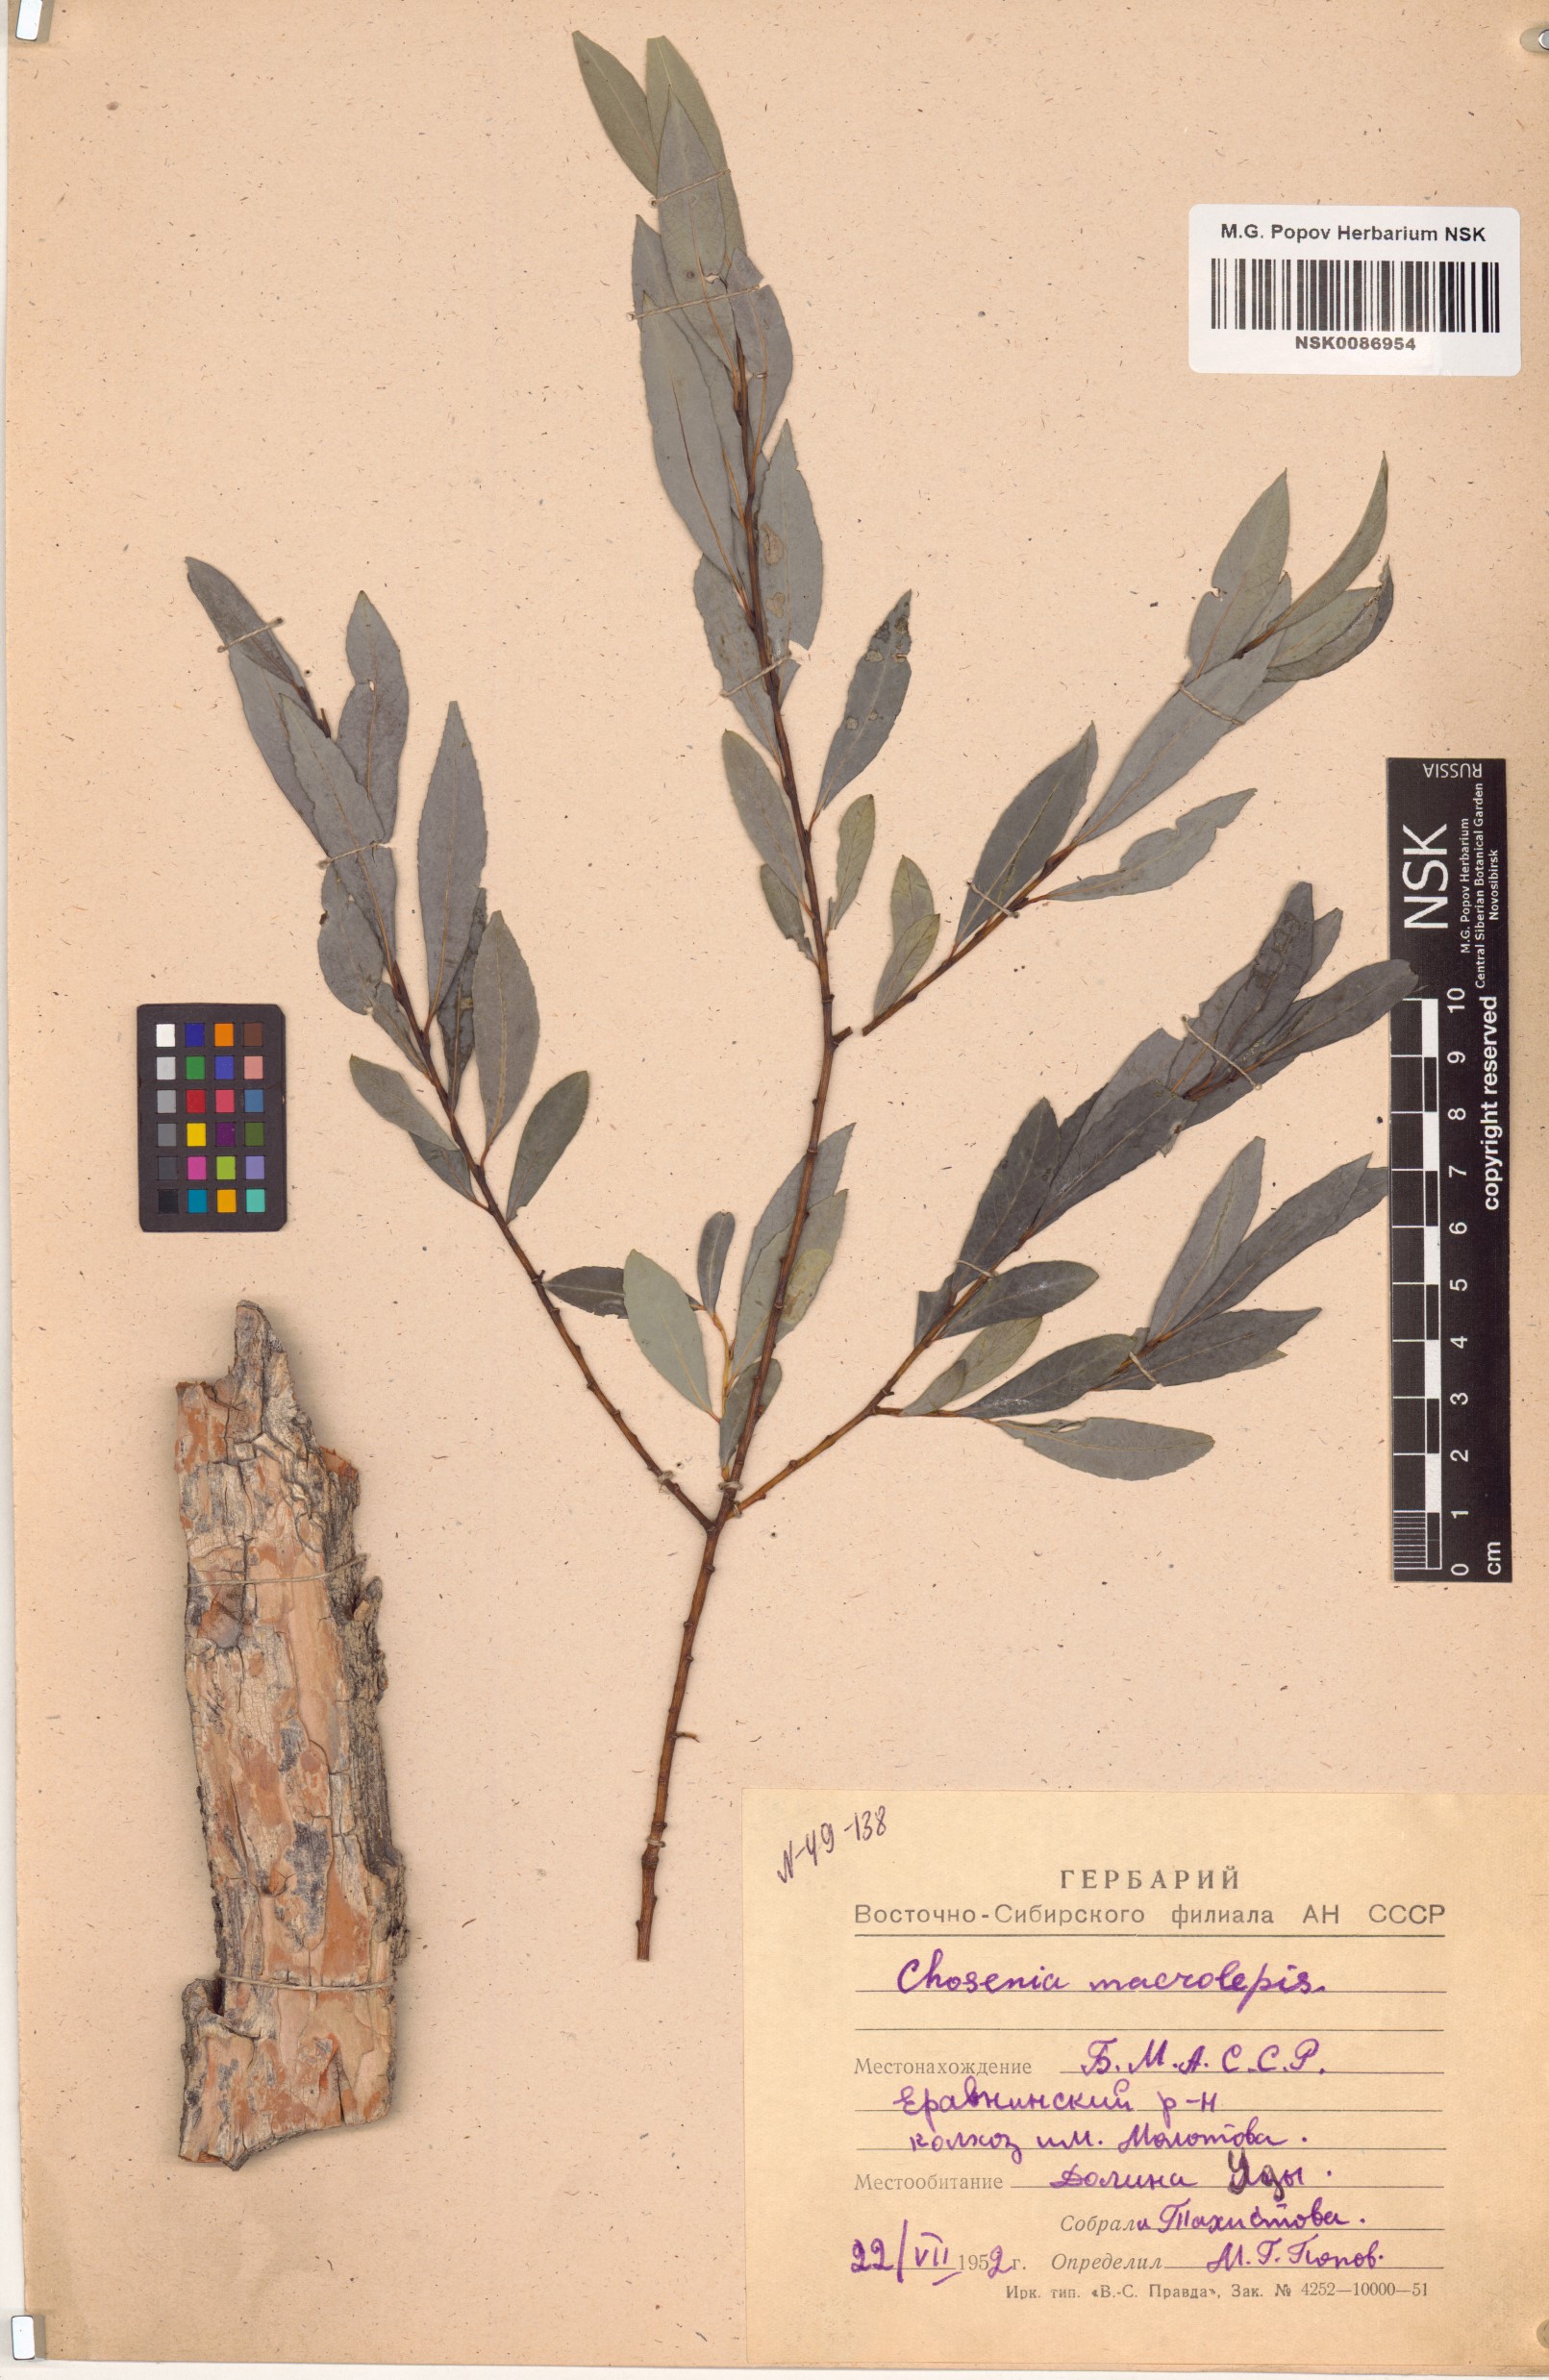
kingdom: Plantae
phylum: Tracheophyta
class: Magnoliopsida
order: Malpighiales
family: Salicaceae
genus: Chosenia
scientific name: Chosenia arbutifolia
